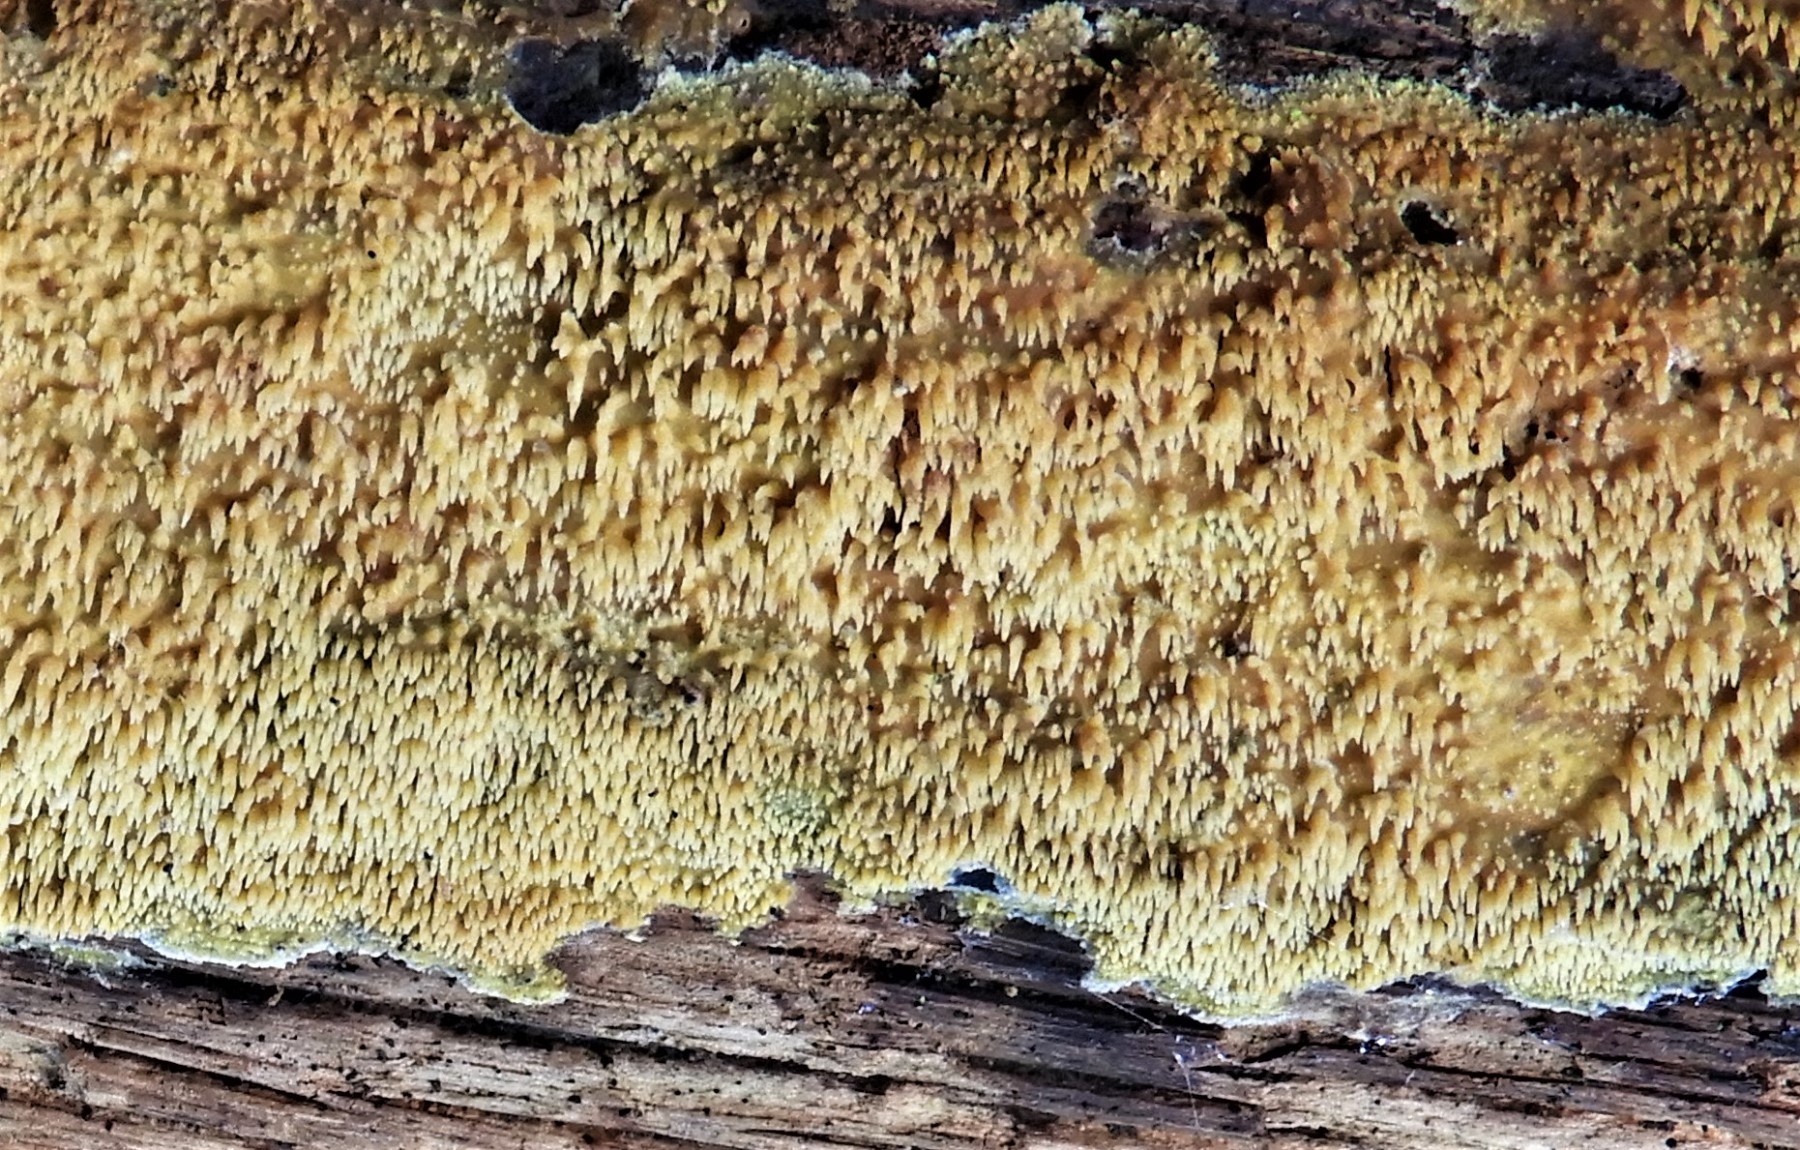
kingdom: Fungi
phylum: Basidiomycota
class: Agaricomycetes
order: Polyporales
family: Meruliaceae
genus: Mycoacia
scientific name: Mycoacia
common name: vokspig
